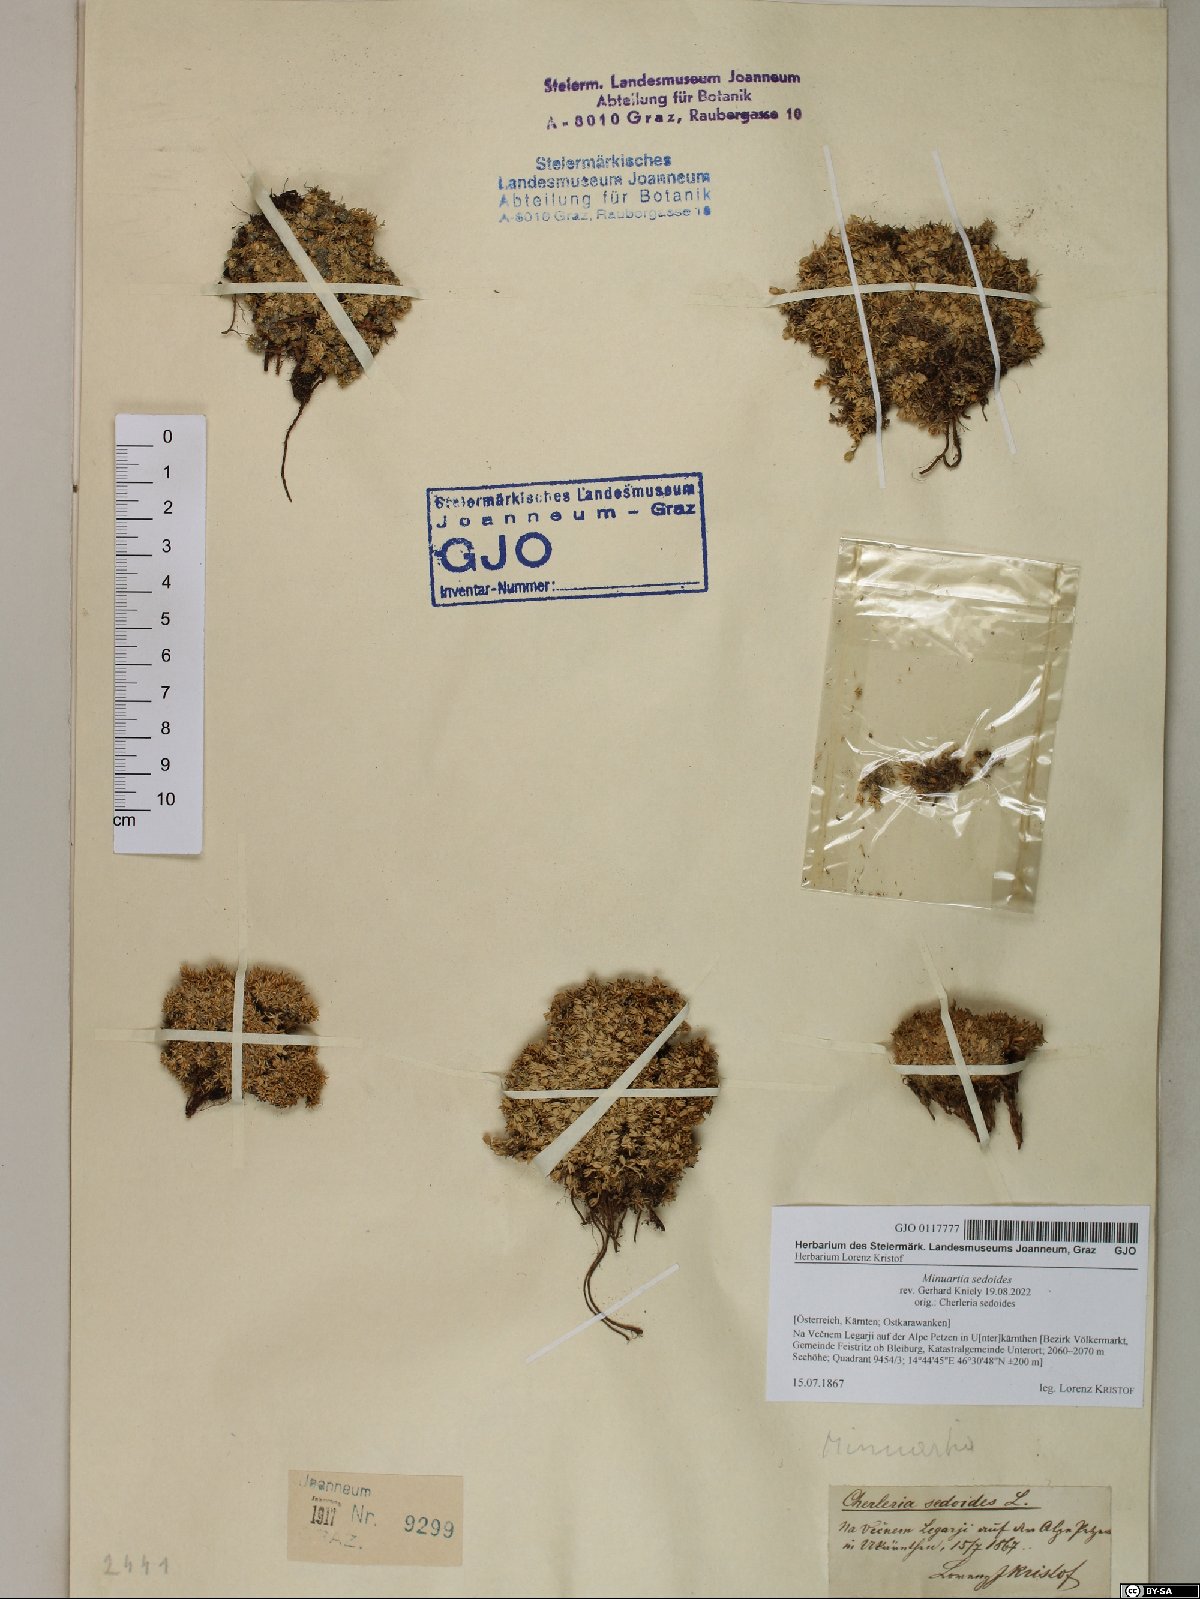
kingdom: Plantae
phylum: Tracheophyta
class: Magnoliopsida
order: Caryophyllales
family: Caryophyllaceae
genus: Cherleria
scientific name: Cherleria sedoides
